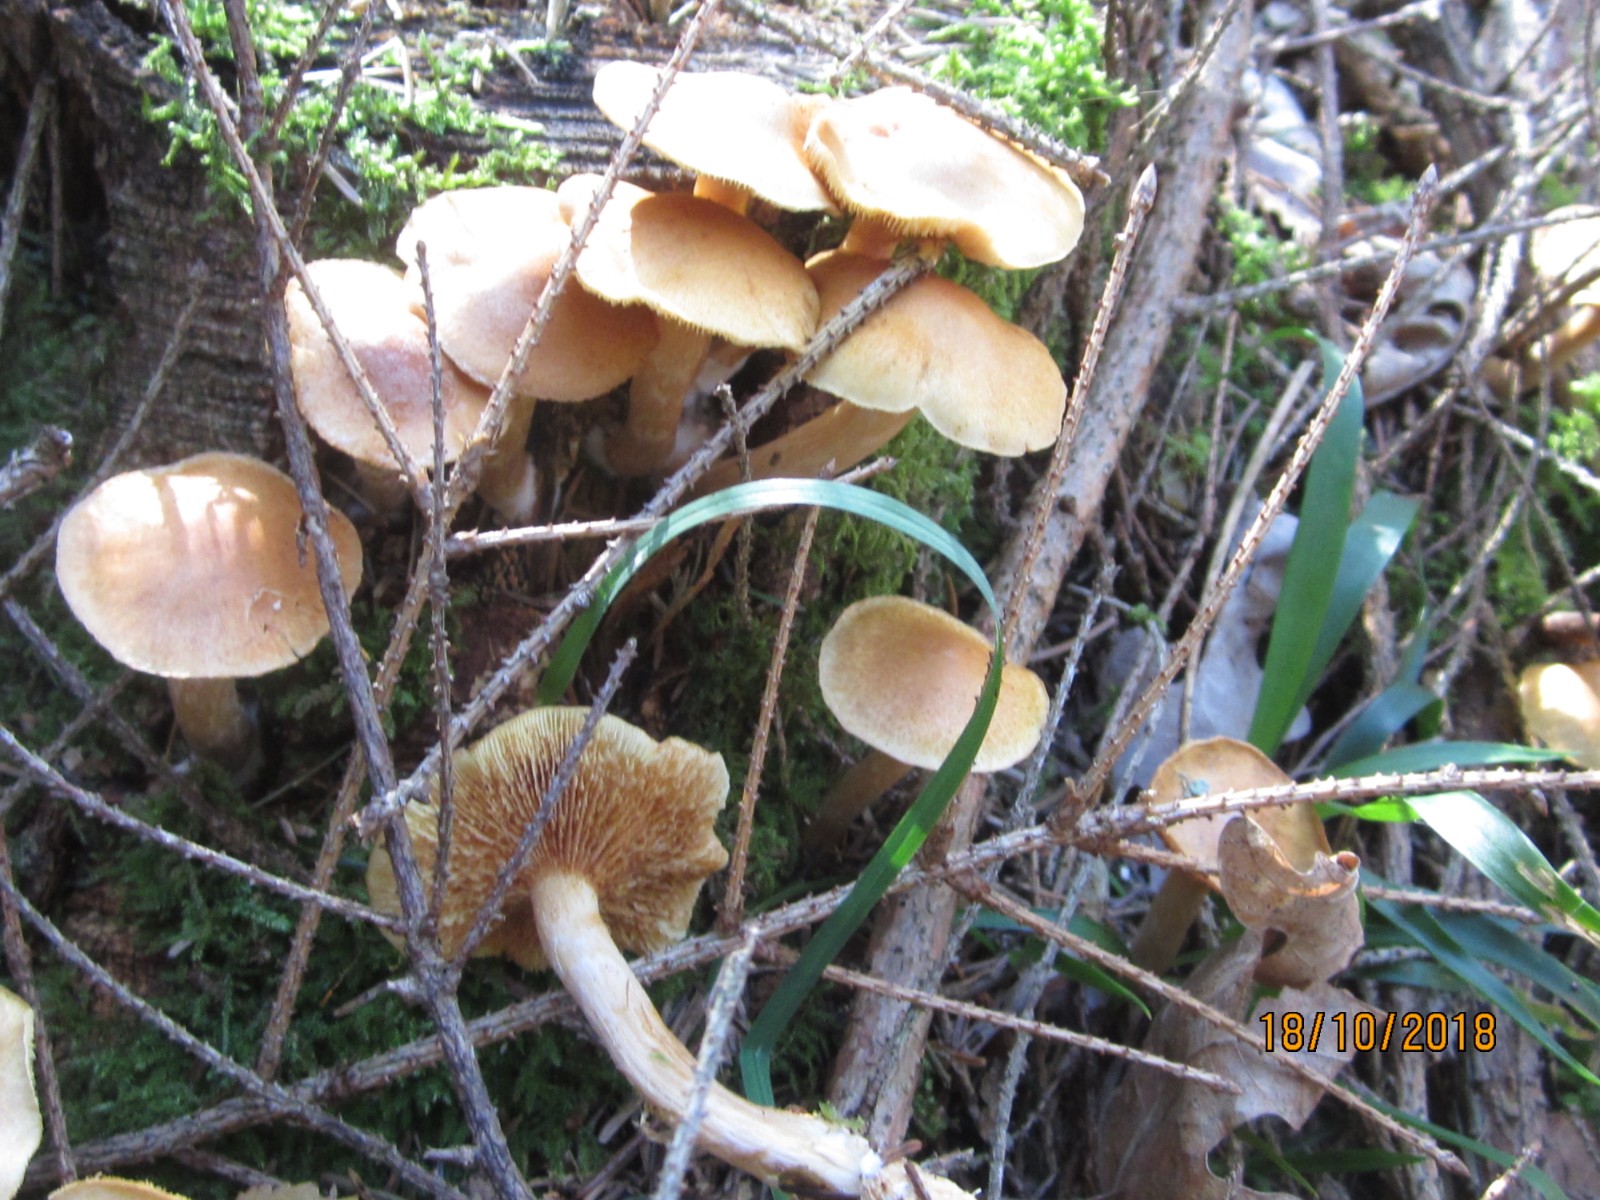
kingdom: Fungi
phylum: Basidiomycota
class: Agaricomycetes
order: Agaricales
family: Hymenogastraceae
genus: Gymnopilus
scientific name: Gymnopilus penetrans
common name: plettet flammehat
